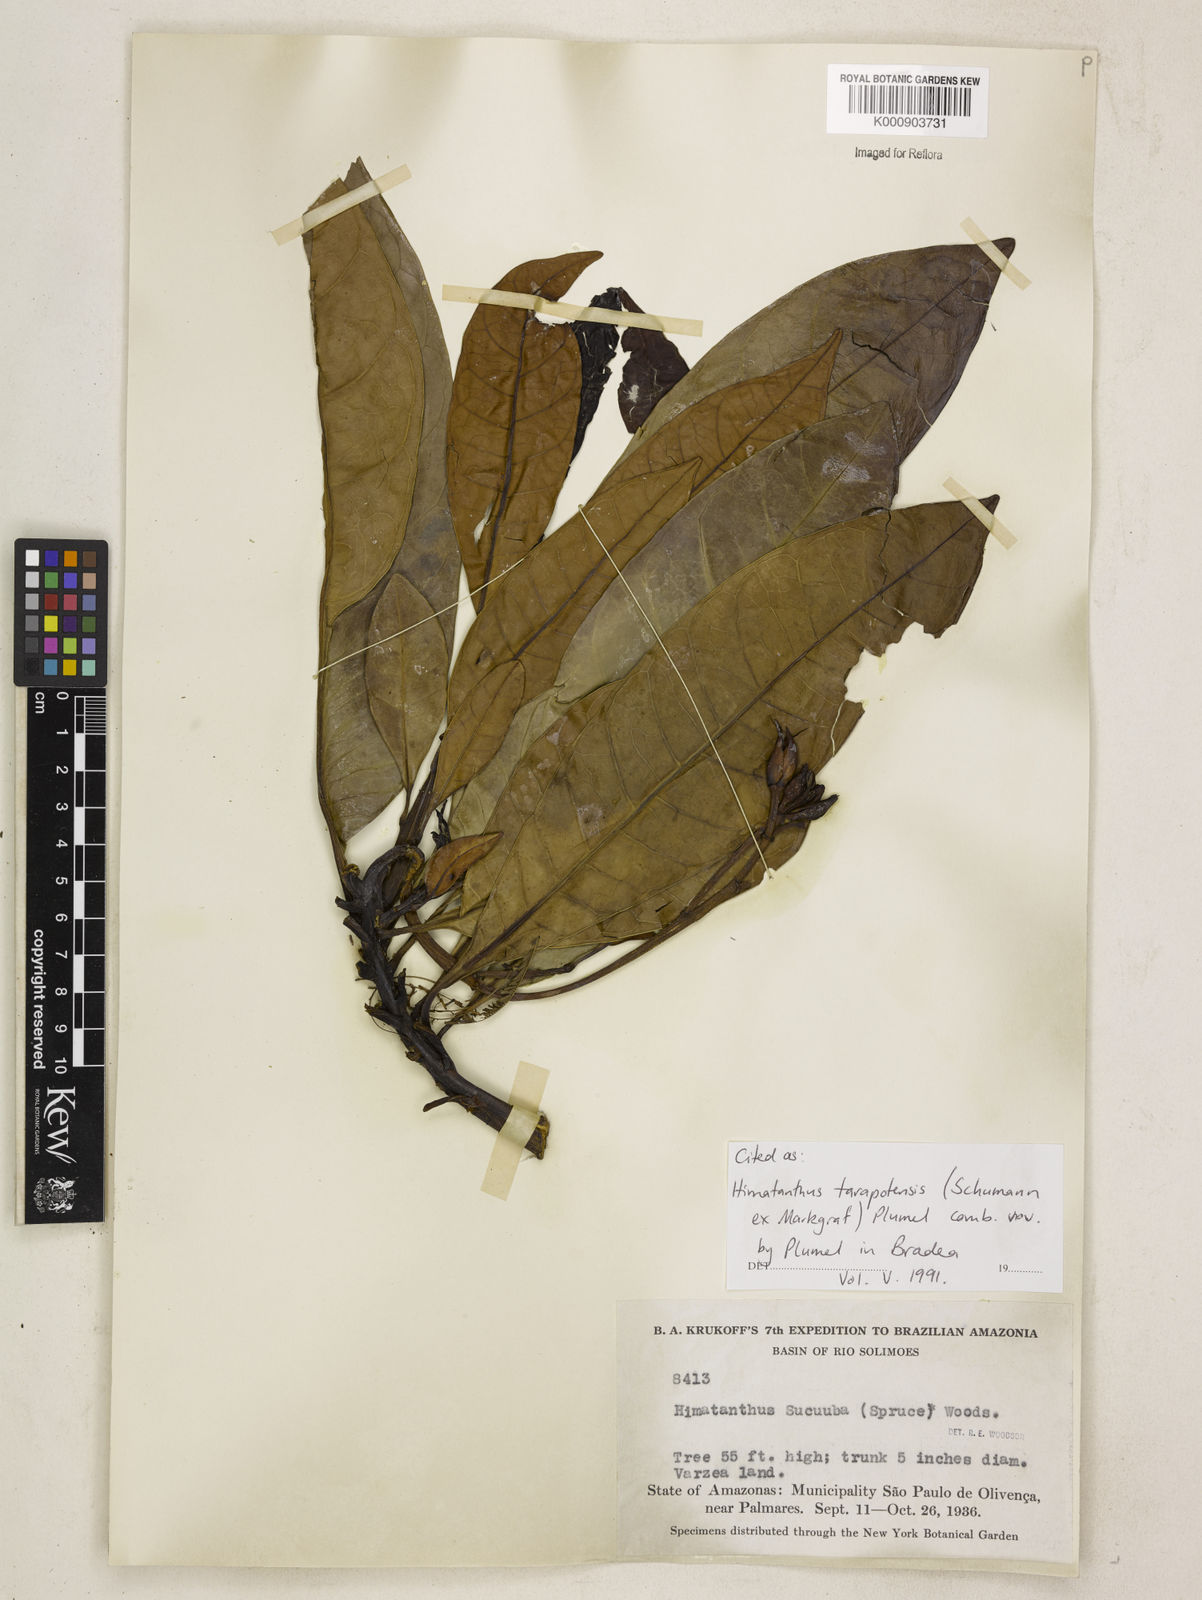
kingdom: Plantae
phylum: Tracheophyta
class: Magnoliopsida
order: Gentianales
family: Apocynaceae
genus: Himatanthus
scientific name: Himatanthus tarapotensis
